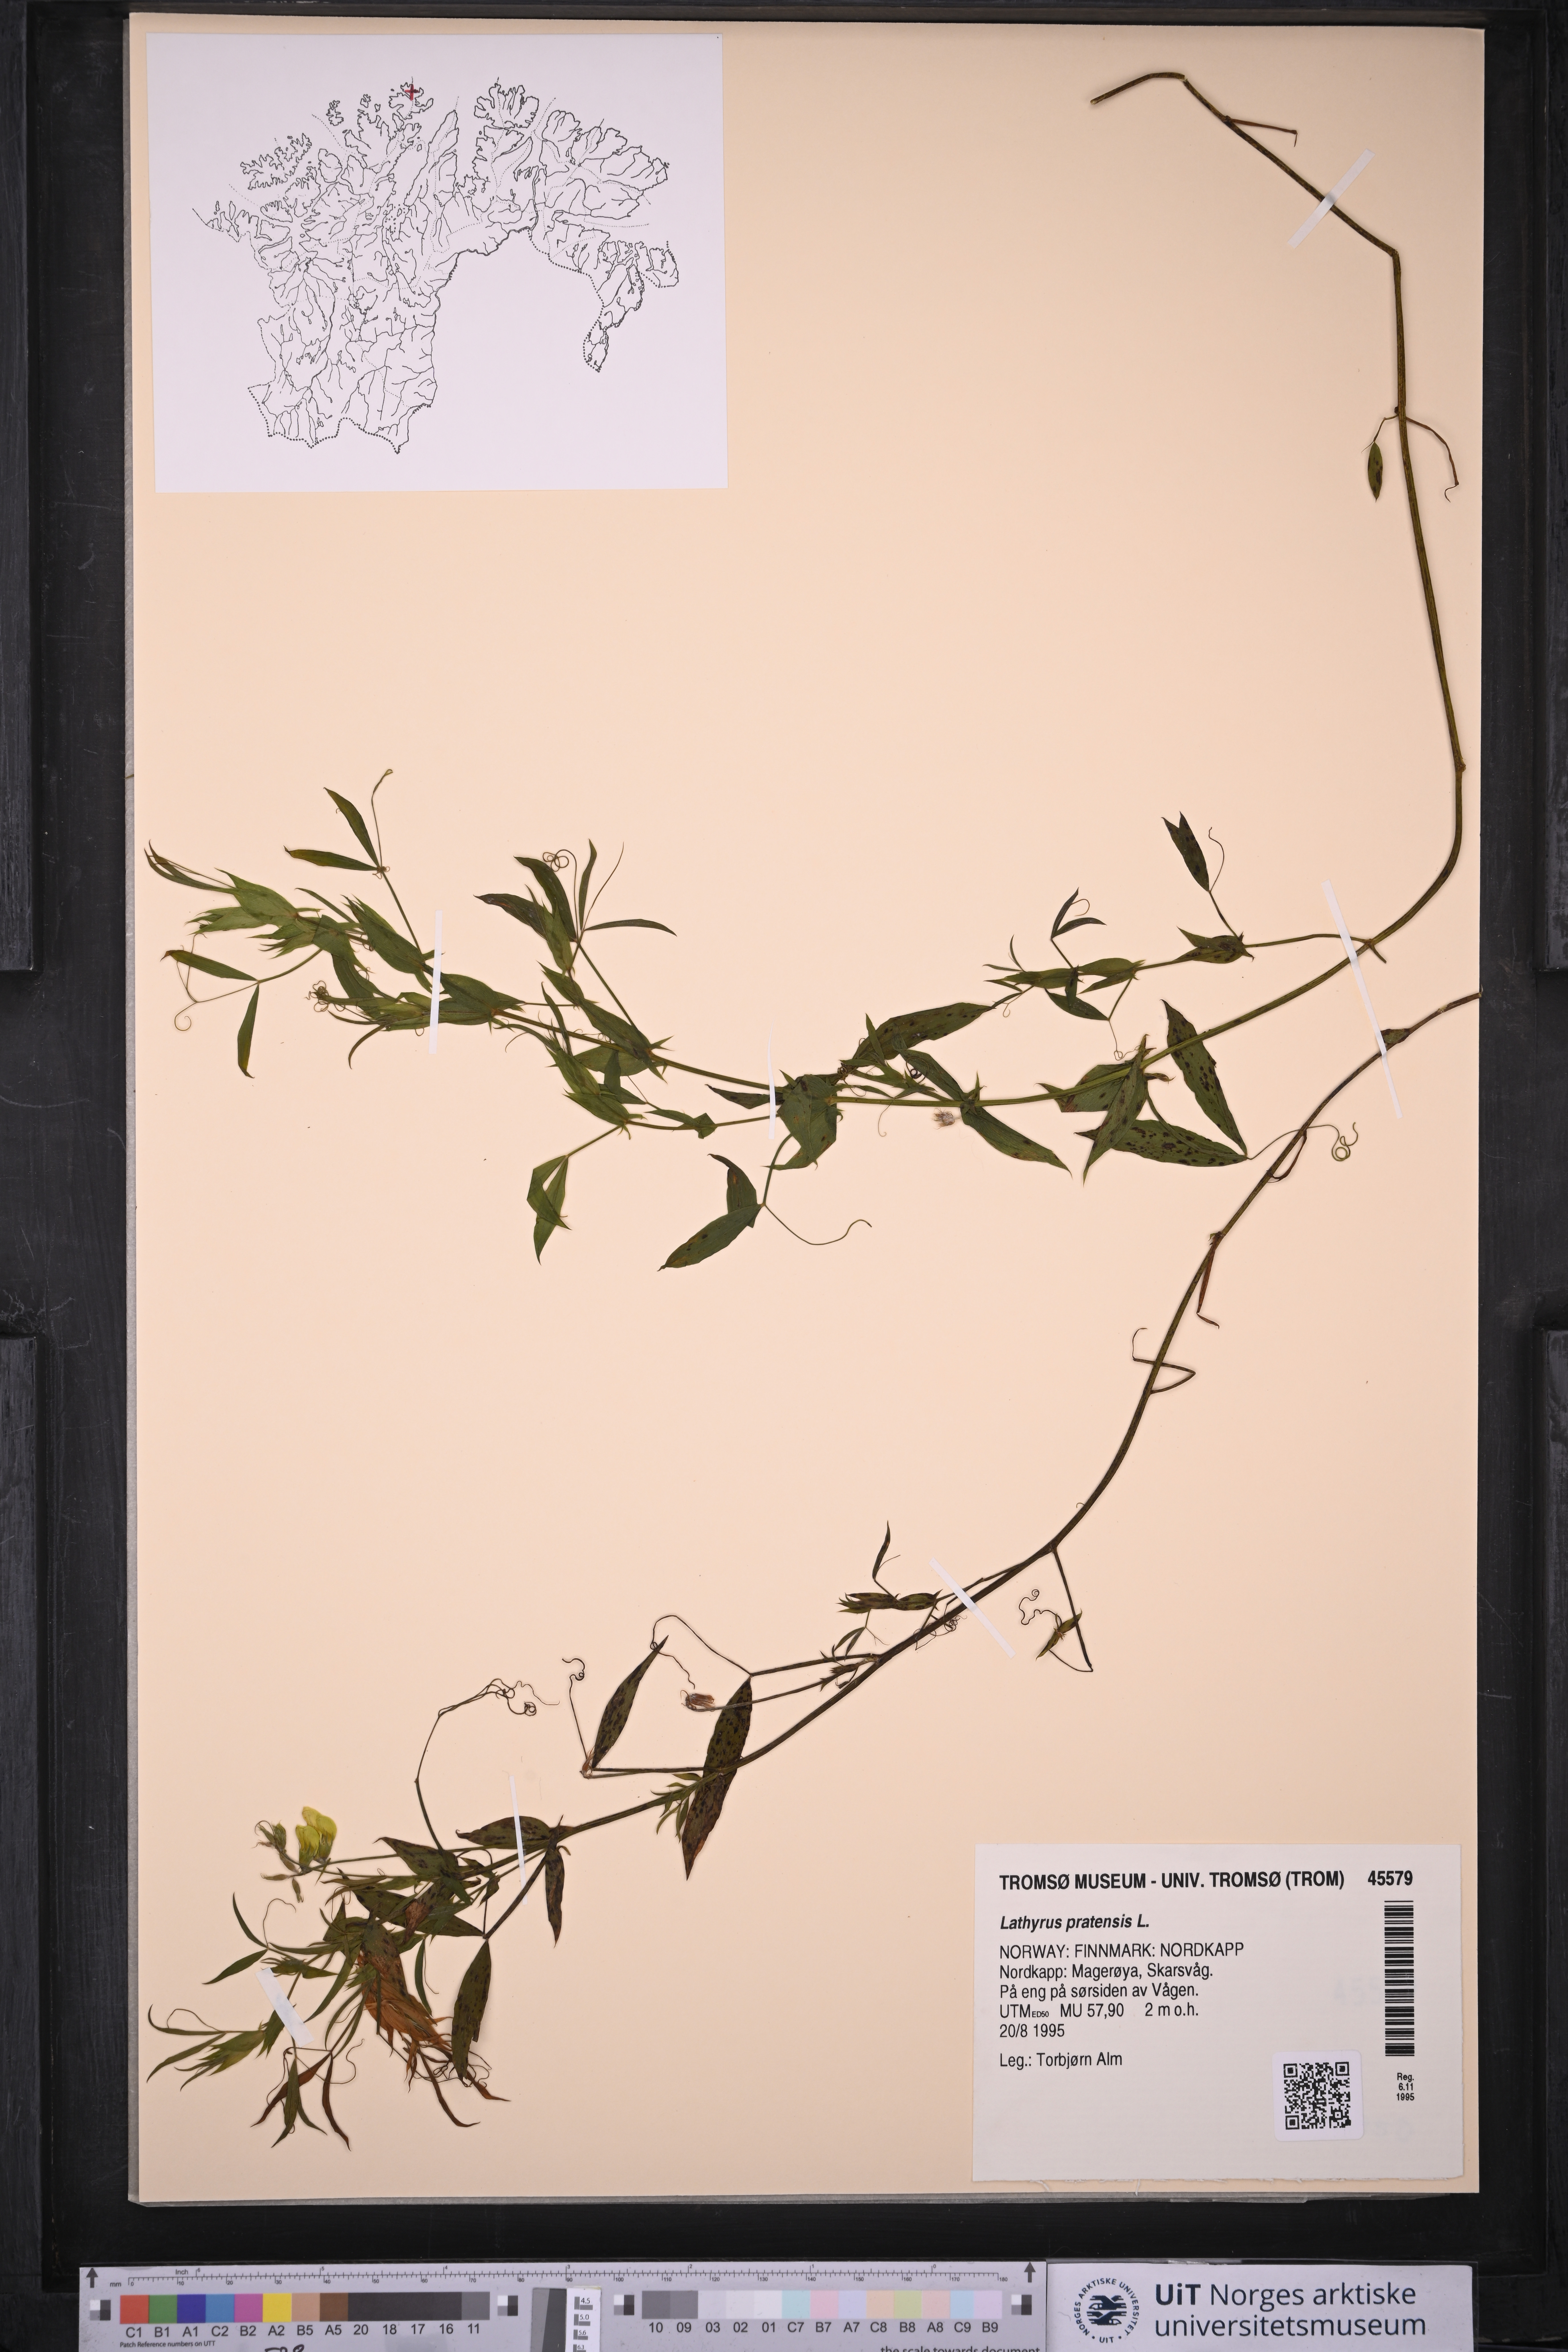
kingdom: Plantae
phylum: Tracheophyta
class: Magnoliopsida
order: Fabales
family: Fabaceae
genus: Lathyrus
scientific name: Lathyrus pratensis
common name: Meadow vetchling
